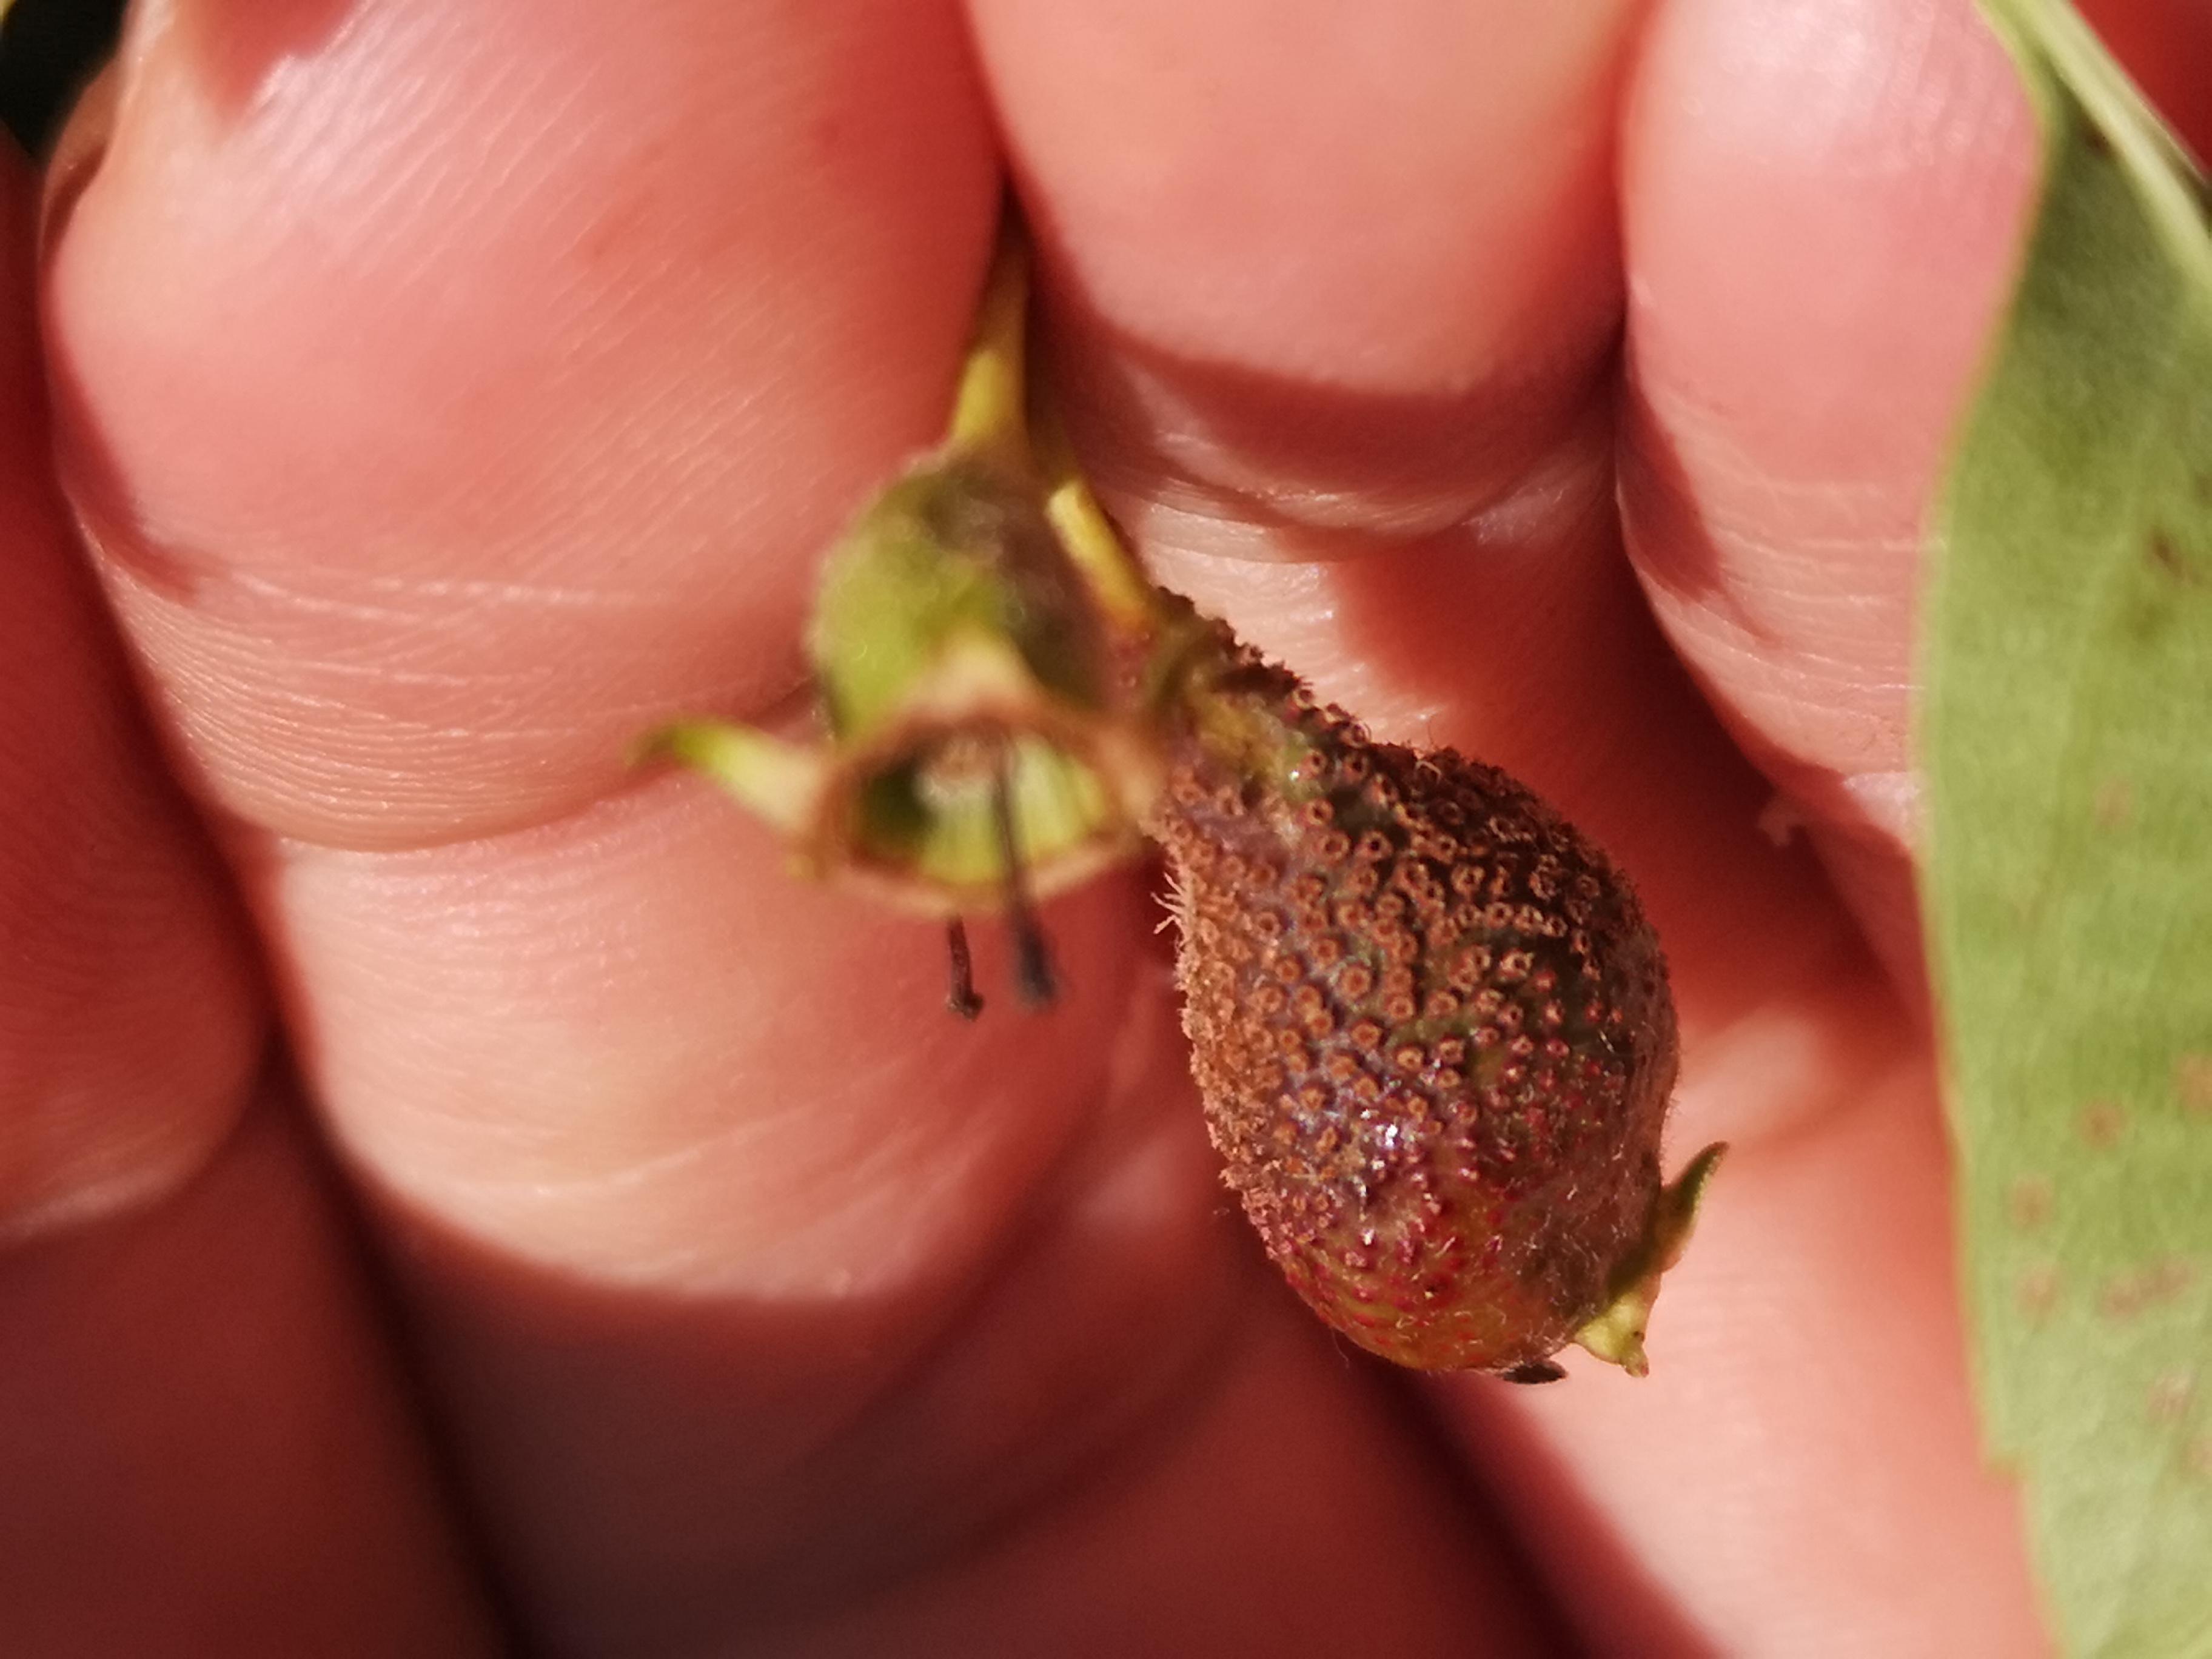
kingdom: Fungi
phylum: Basidiomycota
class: Pucciniomycetes
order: Pucciniales
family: Gymnosporangiaceae
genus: Gymnosporangium
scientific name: Gymnosporangium
